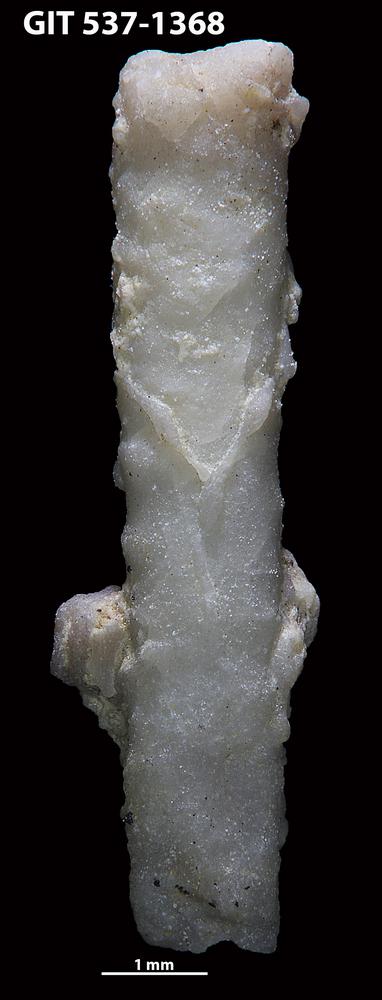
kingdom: Animalia
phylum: Bryozoa
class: Stenolaemata
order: Cyclostomatida
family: Corynotrypidae
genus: Corynotrypa
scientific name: Corynotrypa delicatula
